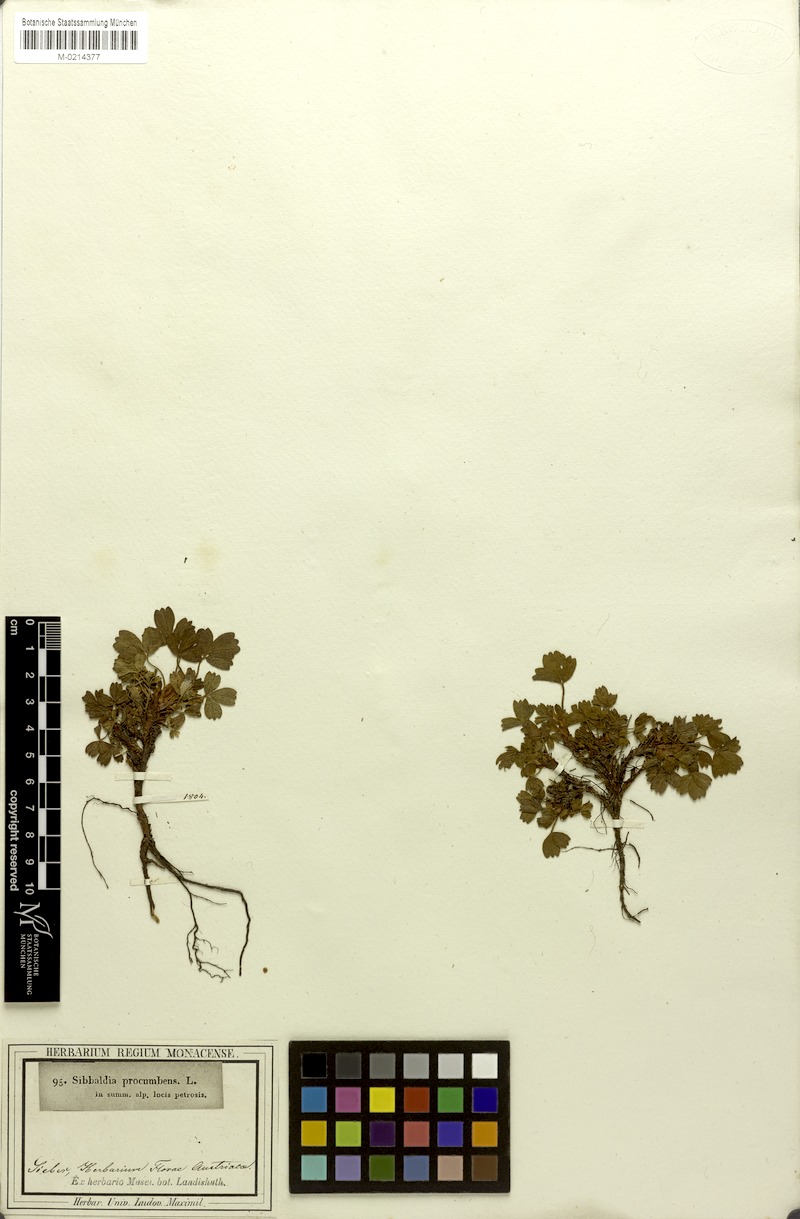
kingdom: Plantae
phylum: Tracheophyta
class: Magnoliopsida
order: Rosales
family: Rosaceae
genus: Sibbaldia
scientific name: Sibbaldia procumbens
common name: Creeping sibbaldia
